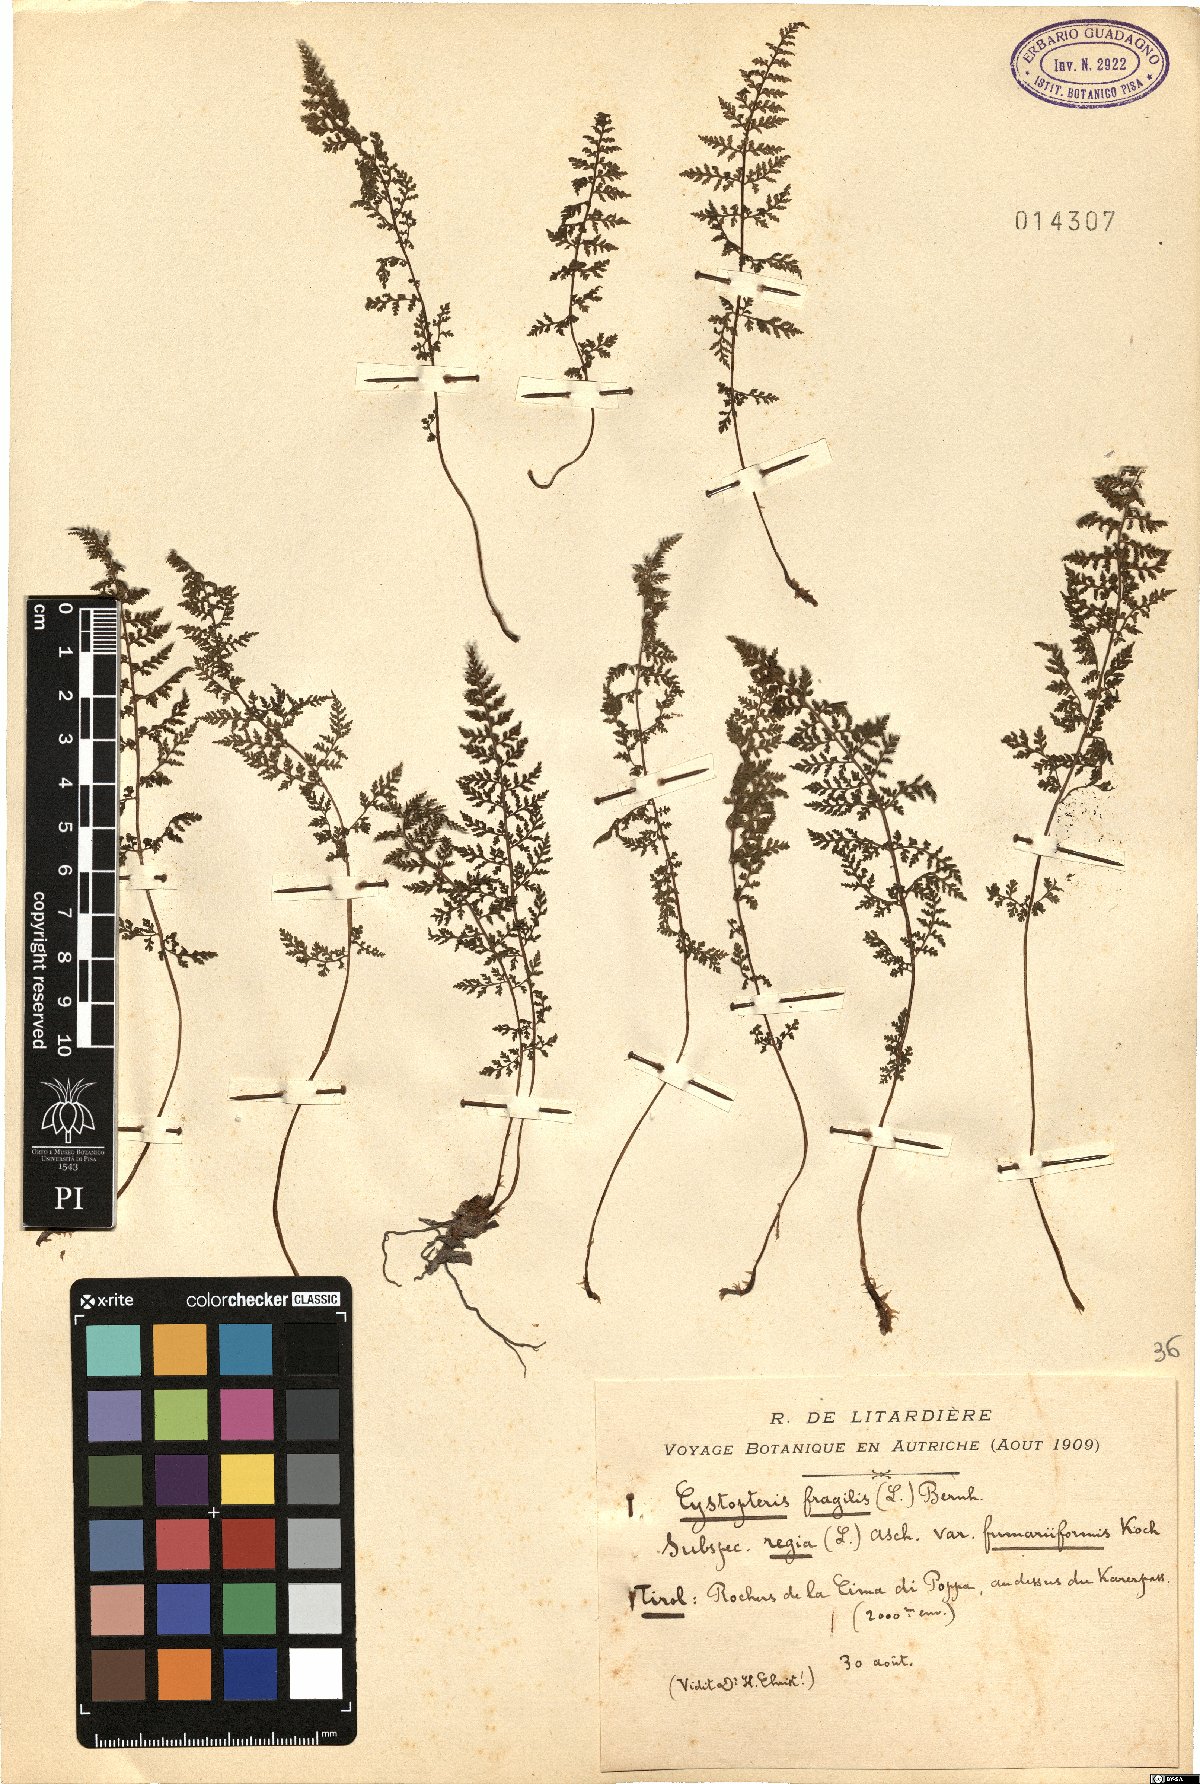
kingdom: Plantae
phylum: Tracheophyta
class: Polypodiopsida
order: Polypodiales
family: Cystopteridaceae
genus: Cystopteris
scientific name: Cystopteris alpina
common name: Alpine bladder-fern
